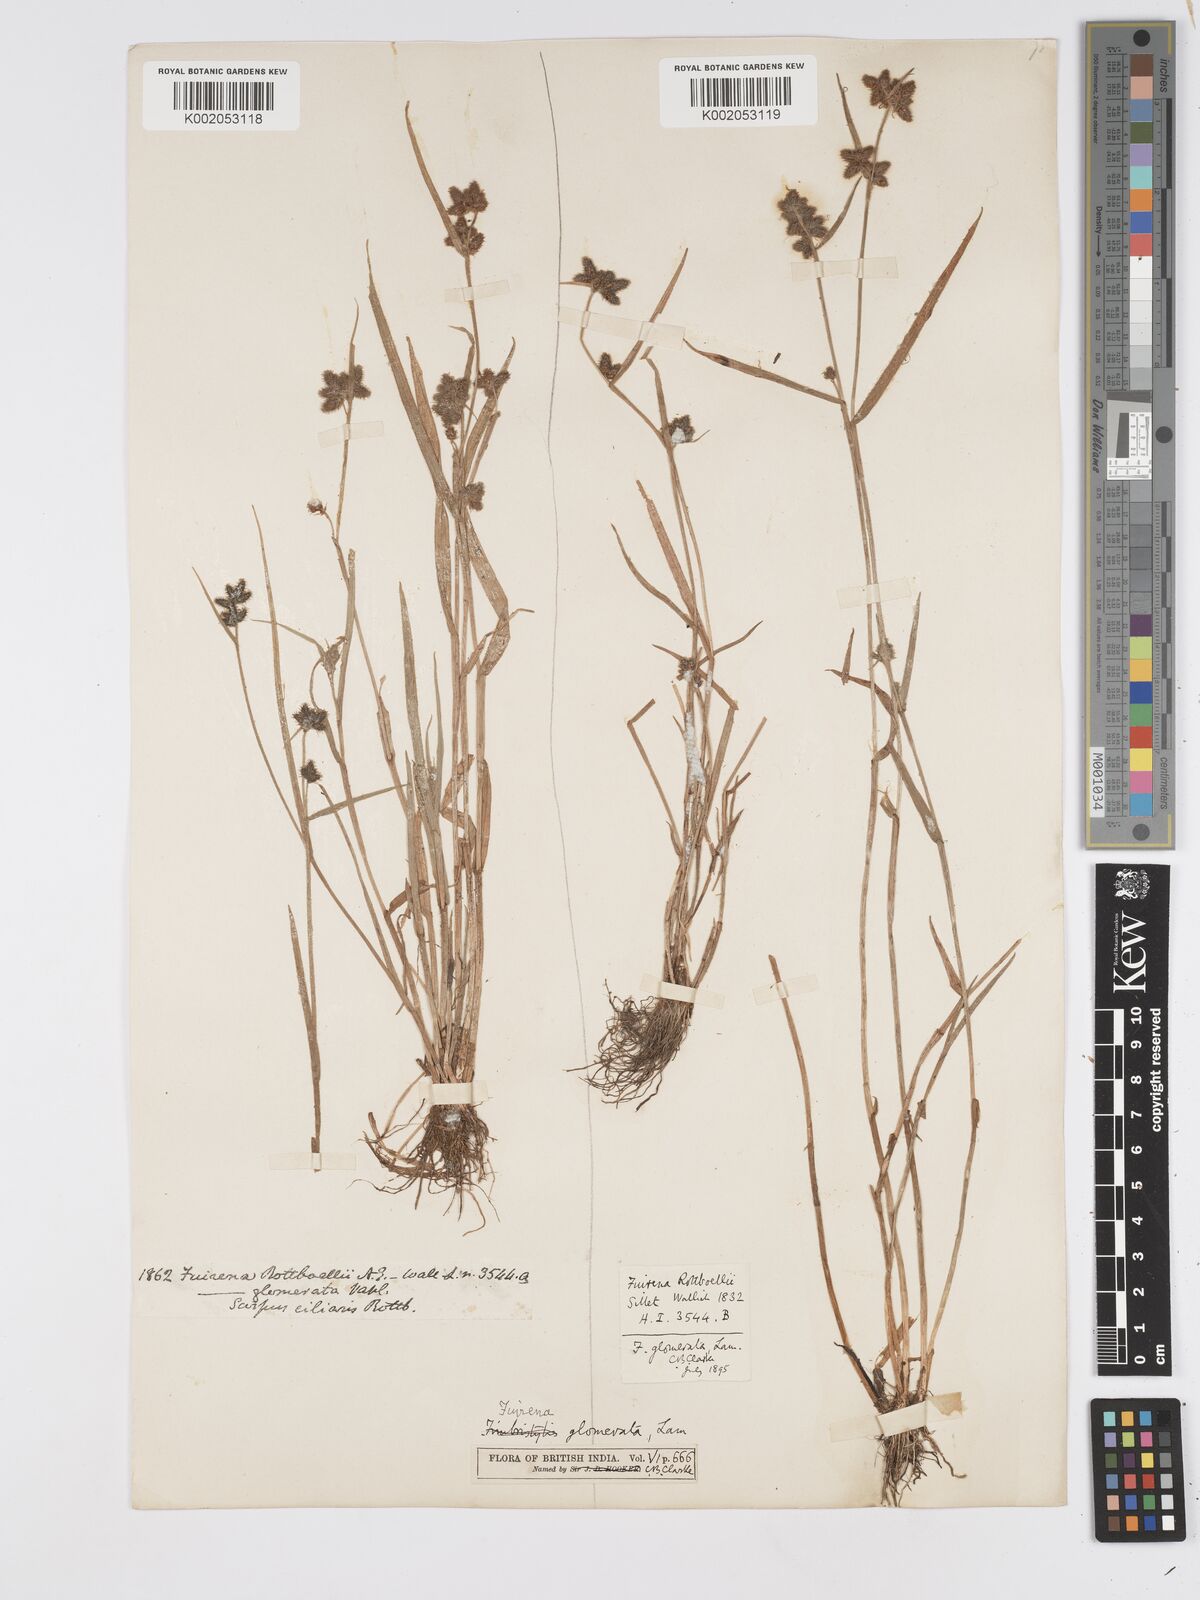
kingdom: Plantae
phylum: Tracheophyta
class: Liliopsida
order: Poales
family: Cyperaceae
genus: Fuirena
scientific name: Fuirena ciliaris
